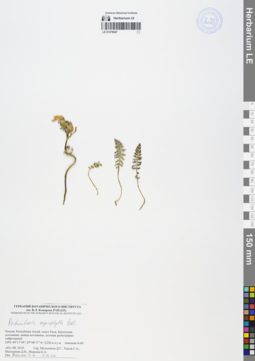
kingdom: Plantae
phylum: Tracheophyta
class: Magnoliopsida
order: Lamiales
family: Orobanchaceae
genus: Pedicularis
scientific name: Pedicularis myriophylla
